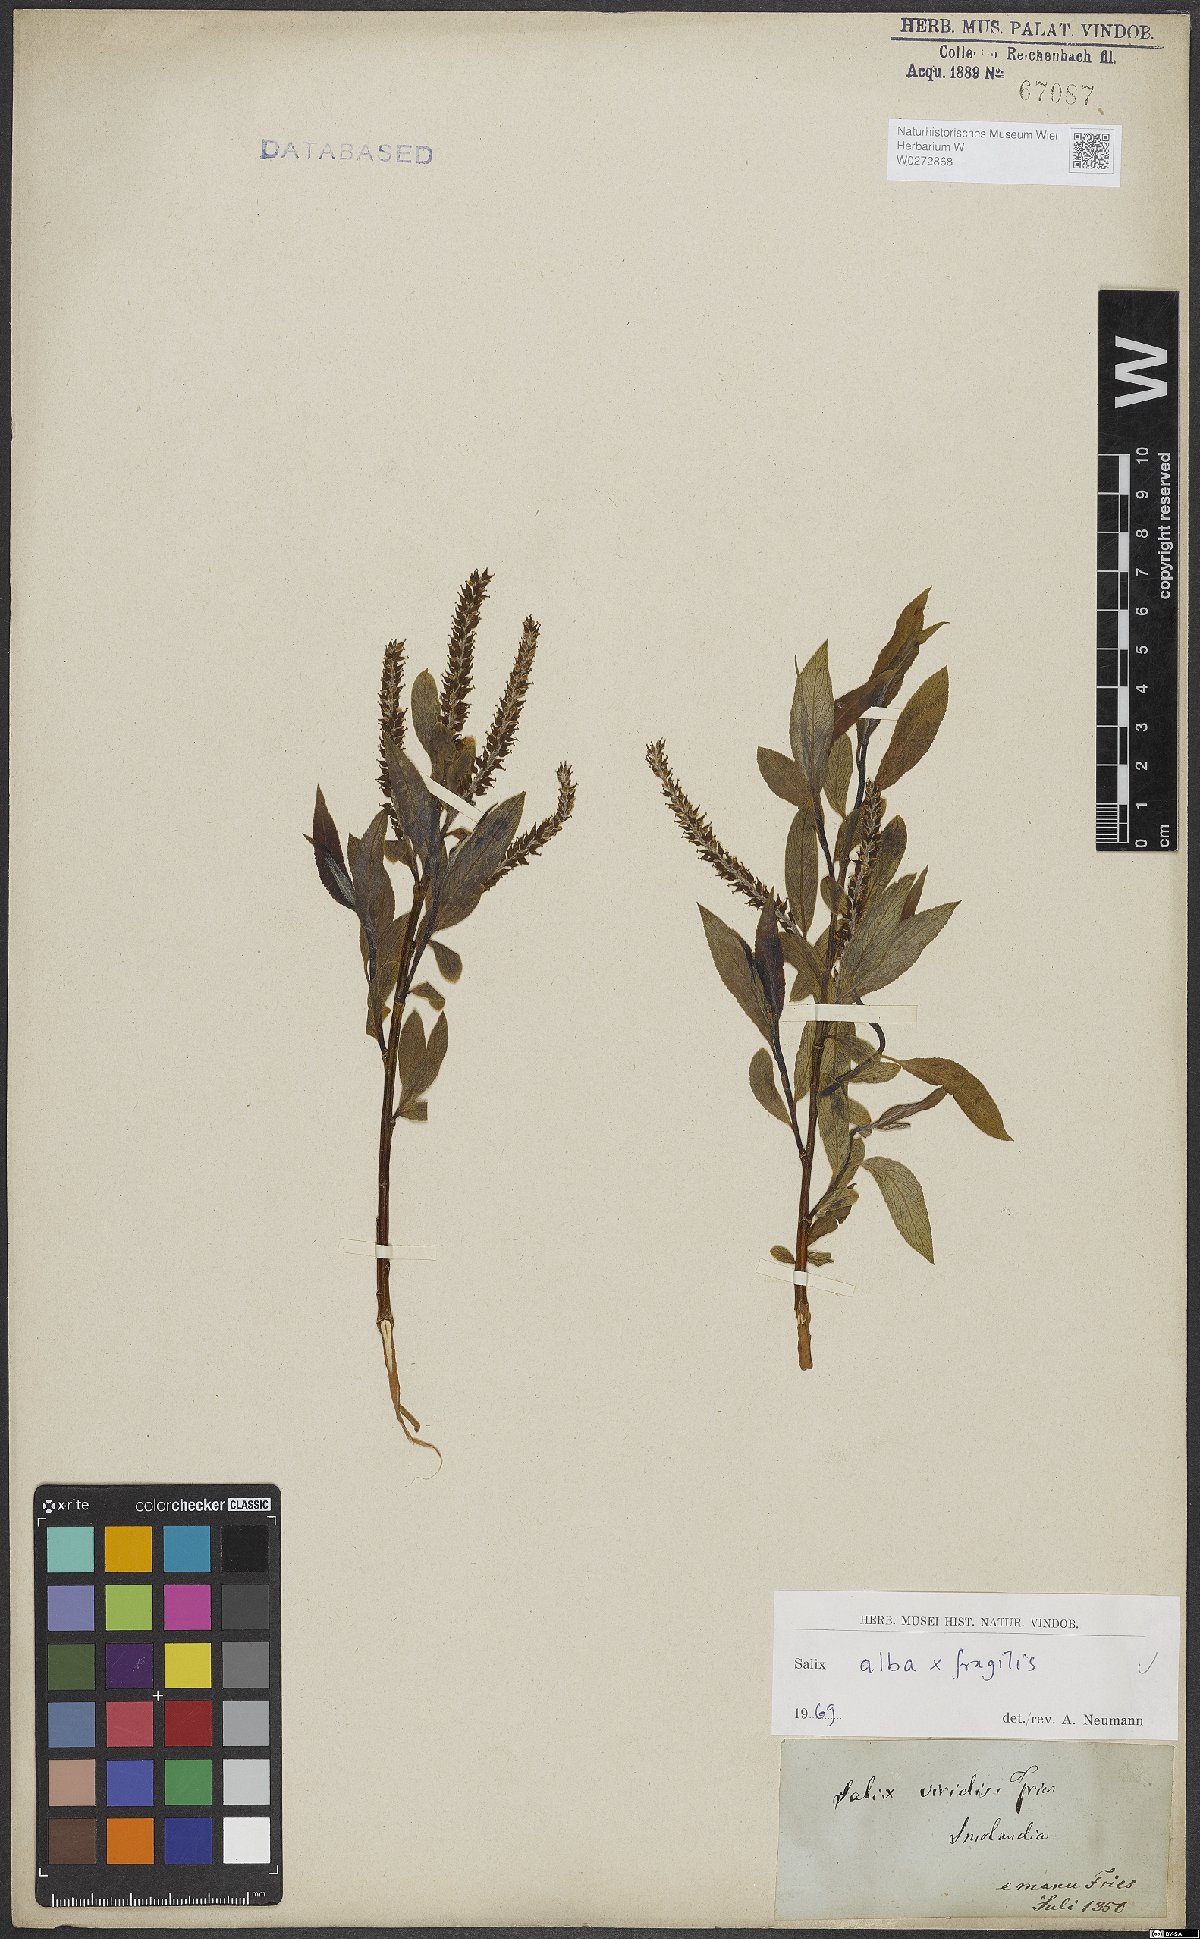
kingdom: Plantae
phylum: Tracheophyta
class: Magnoliopsida
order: Malpighiales
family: Salicaceae
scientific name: Salicaceae
